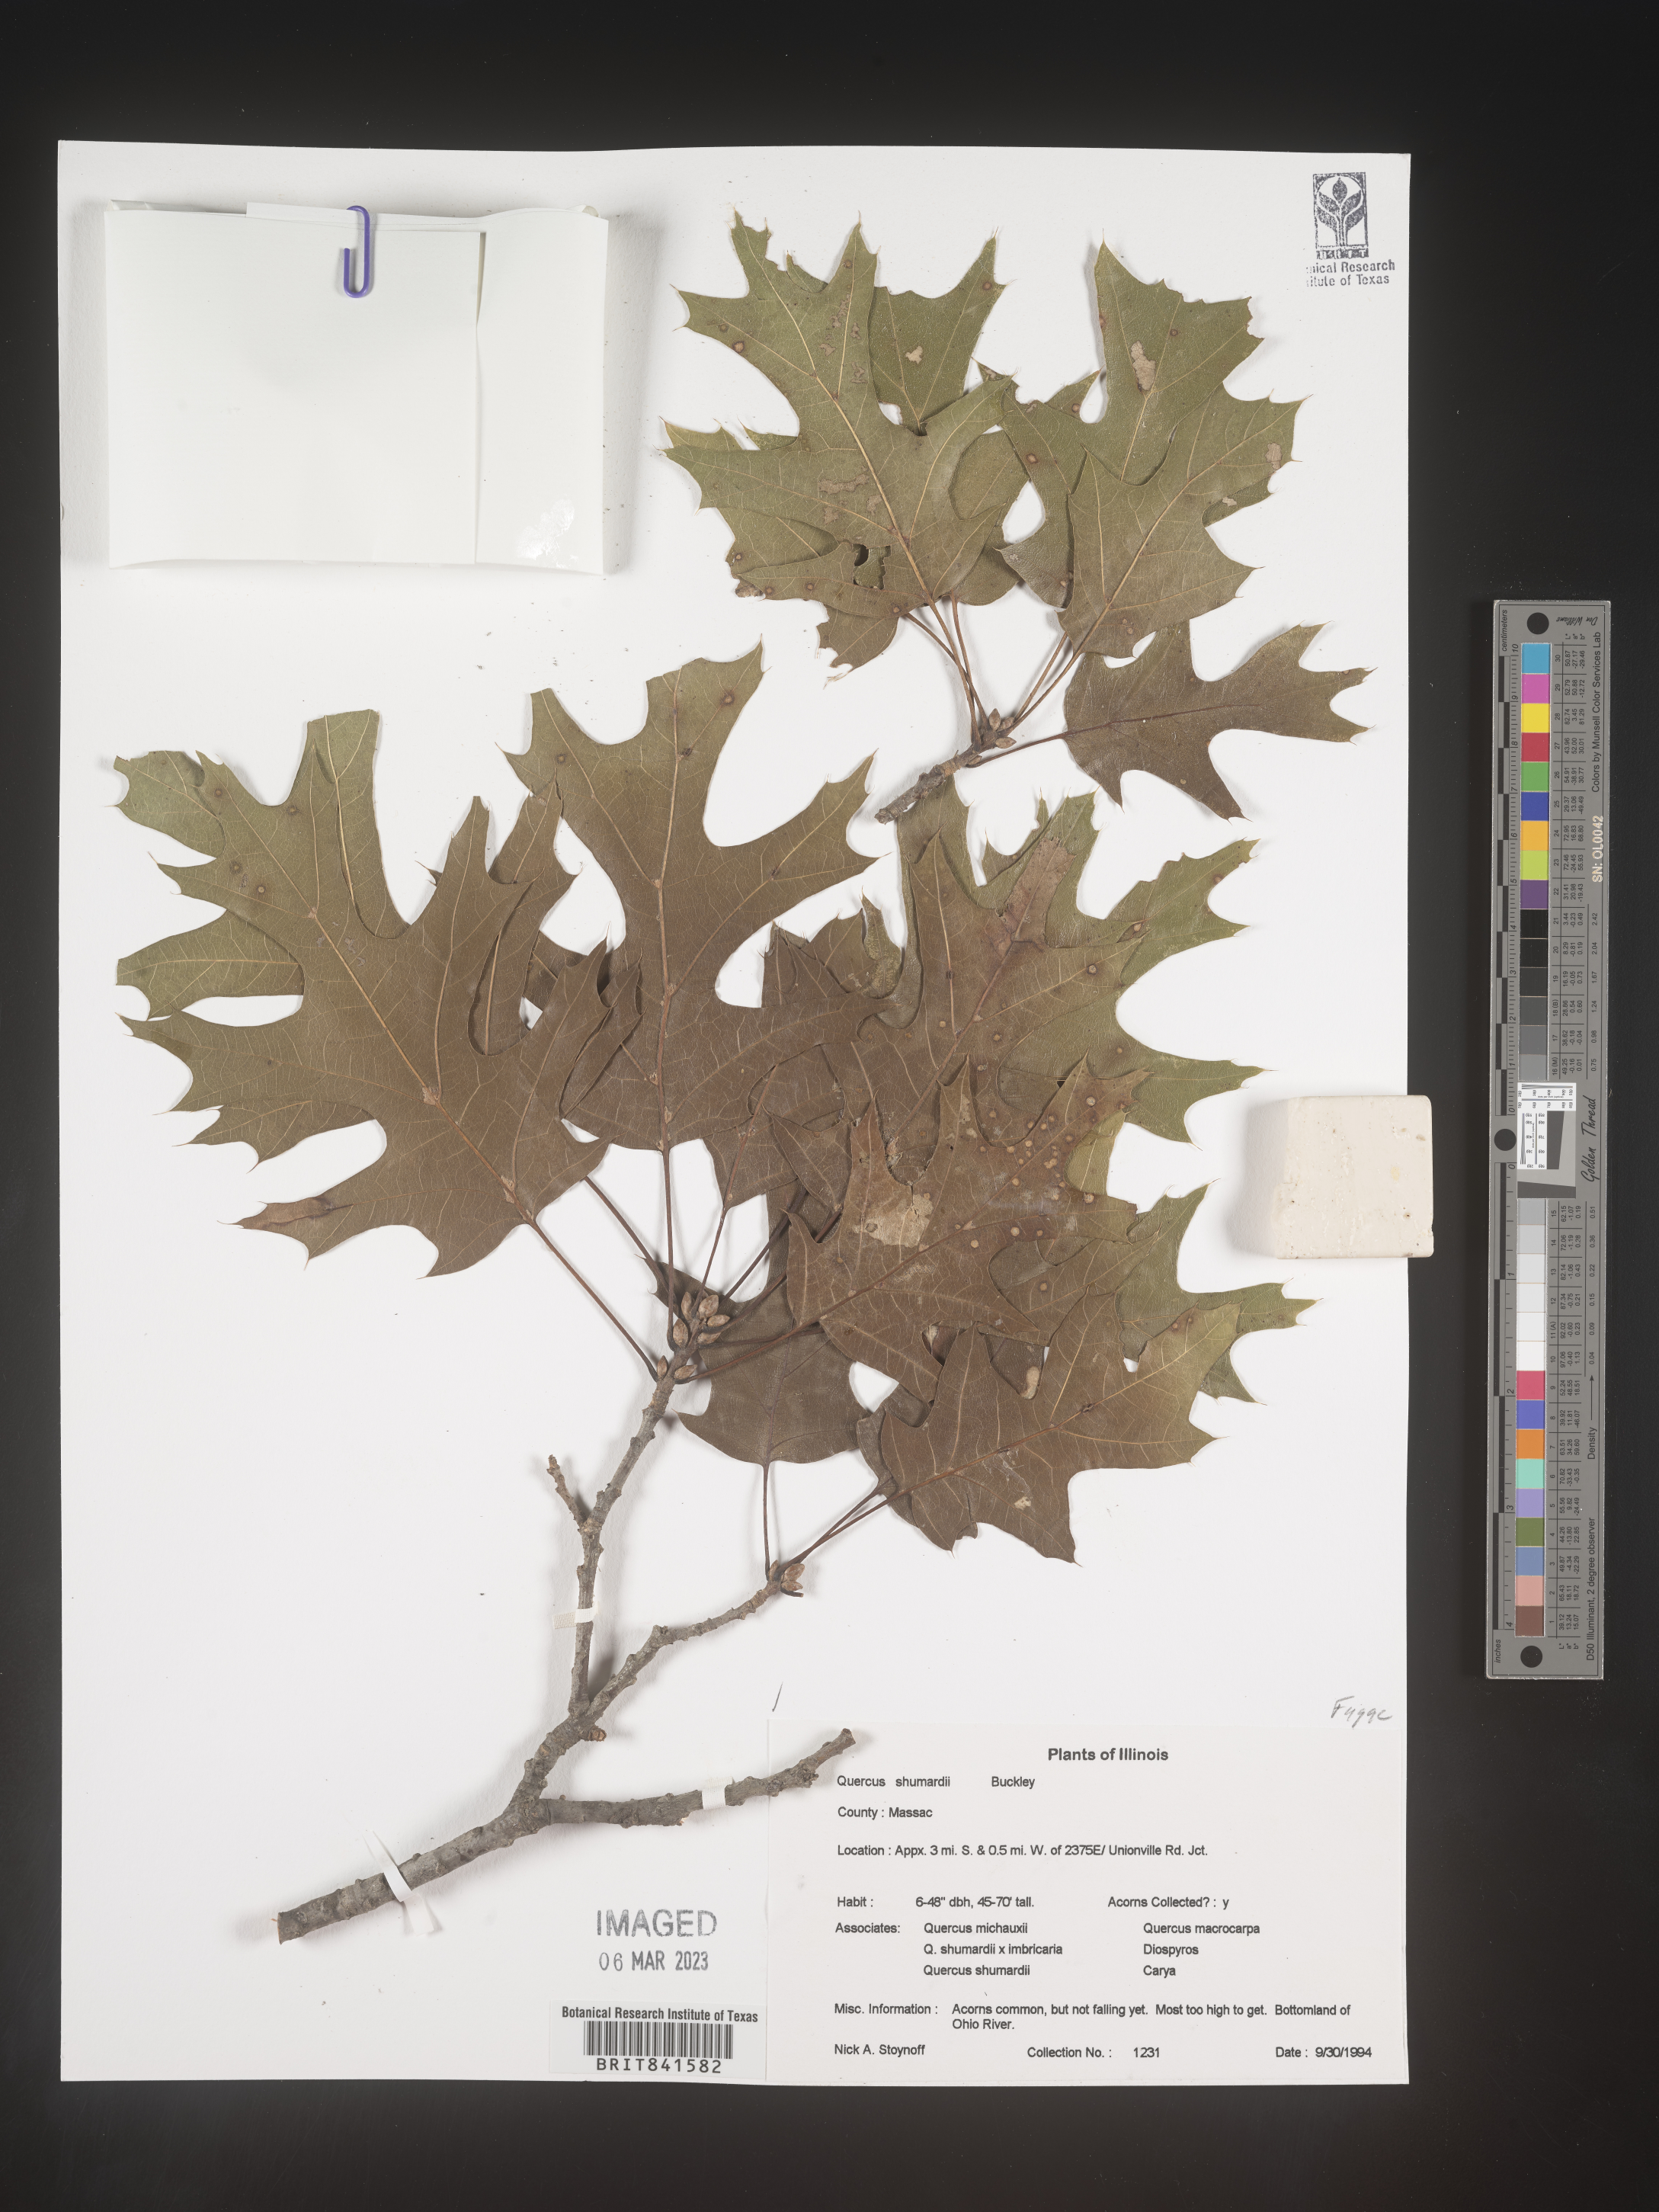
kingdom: Plantae
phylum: Tracheophyta
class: Magnoliopsida
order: Fagales
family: Fagaceae
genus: Quercus
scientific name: Quercus shumardii
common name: Shumard oak
